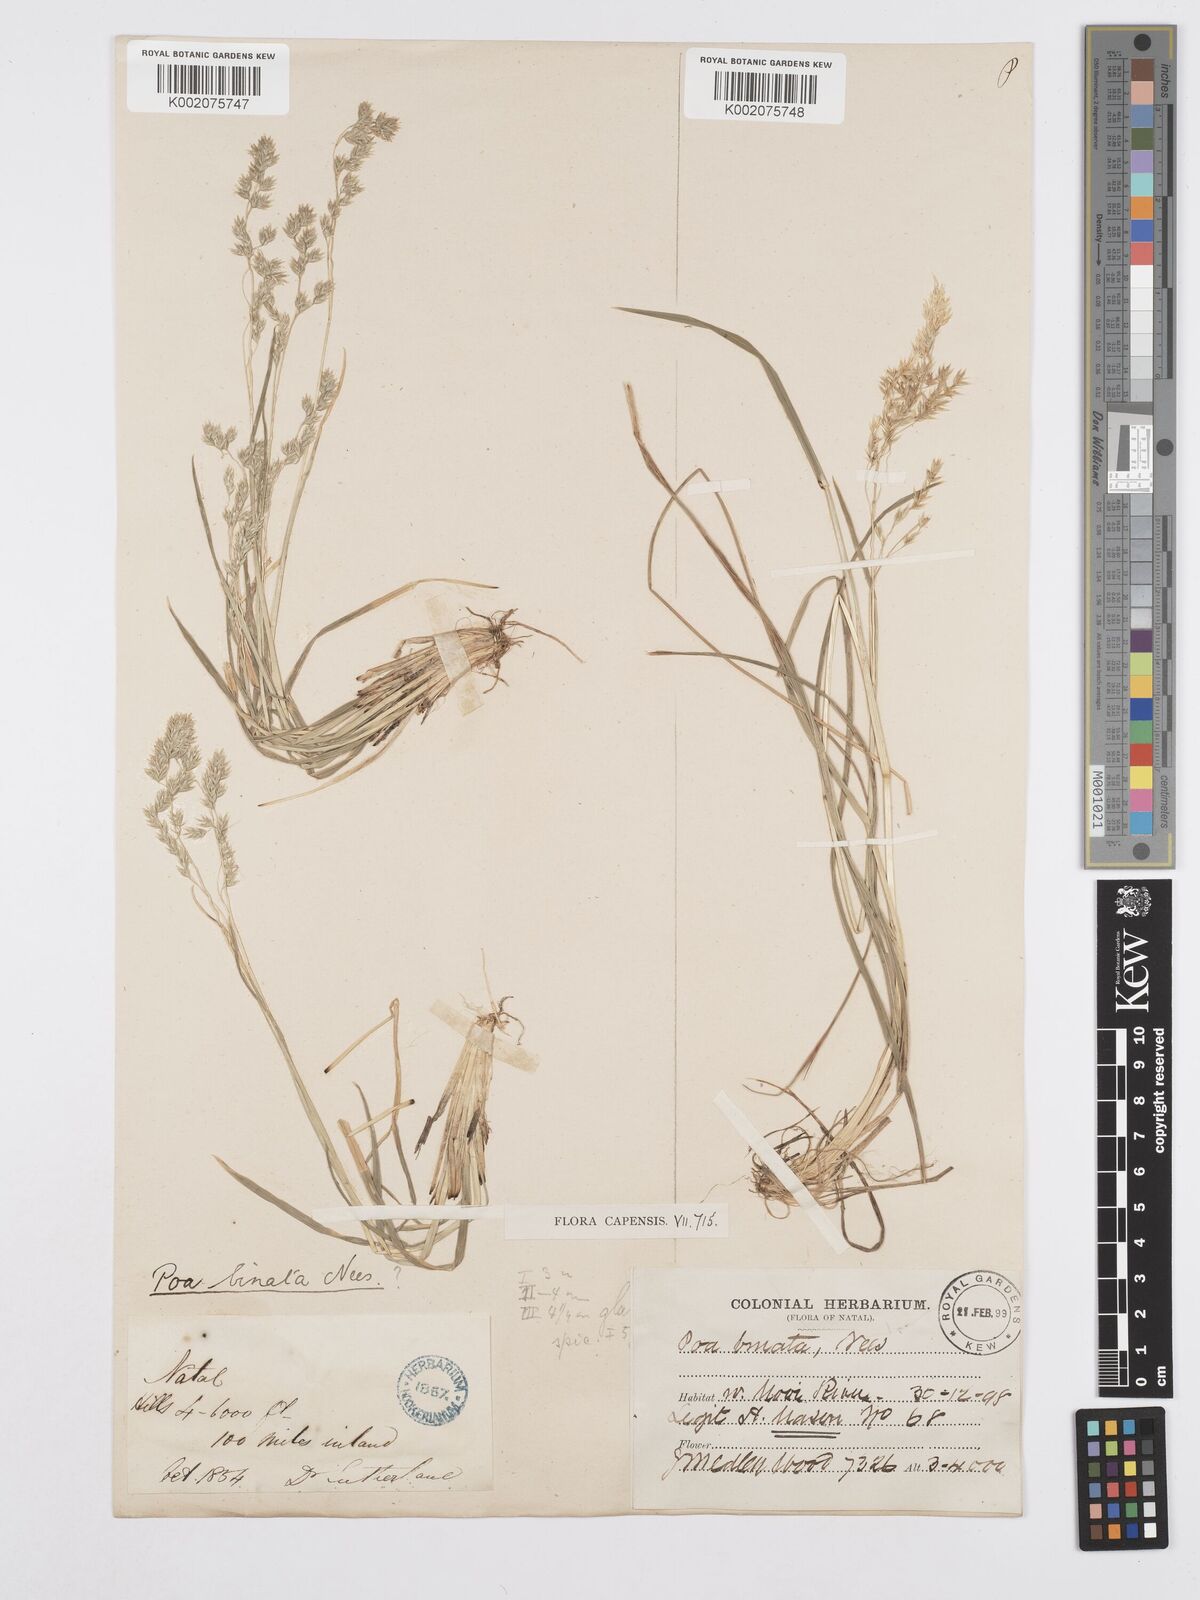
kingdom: Plantae
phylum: Tracheophyta
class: Liliopsida
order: Poales
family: Poaceae
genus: Poa
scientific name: Poa binata
